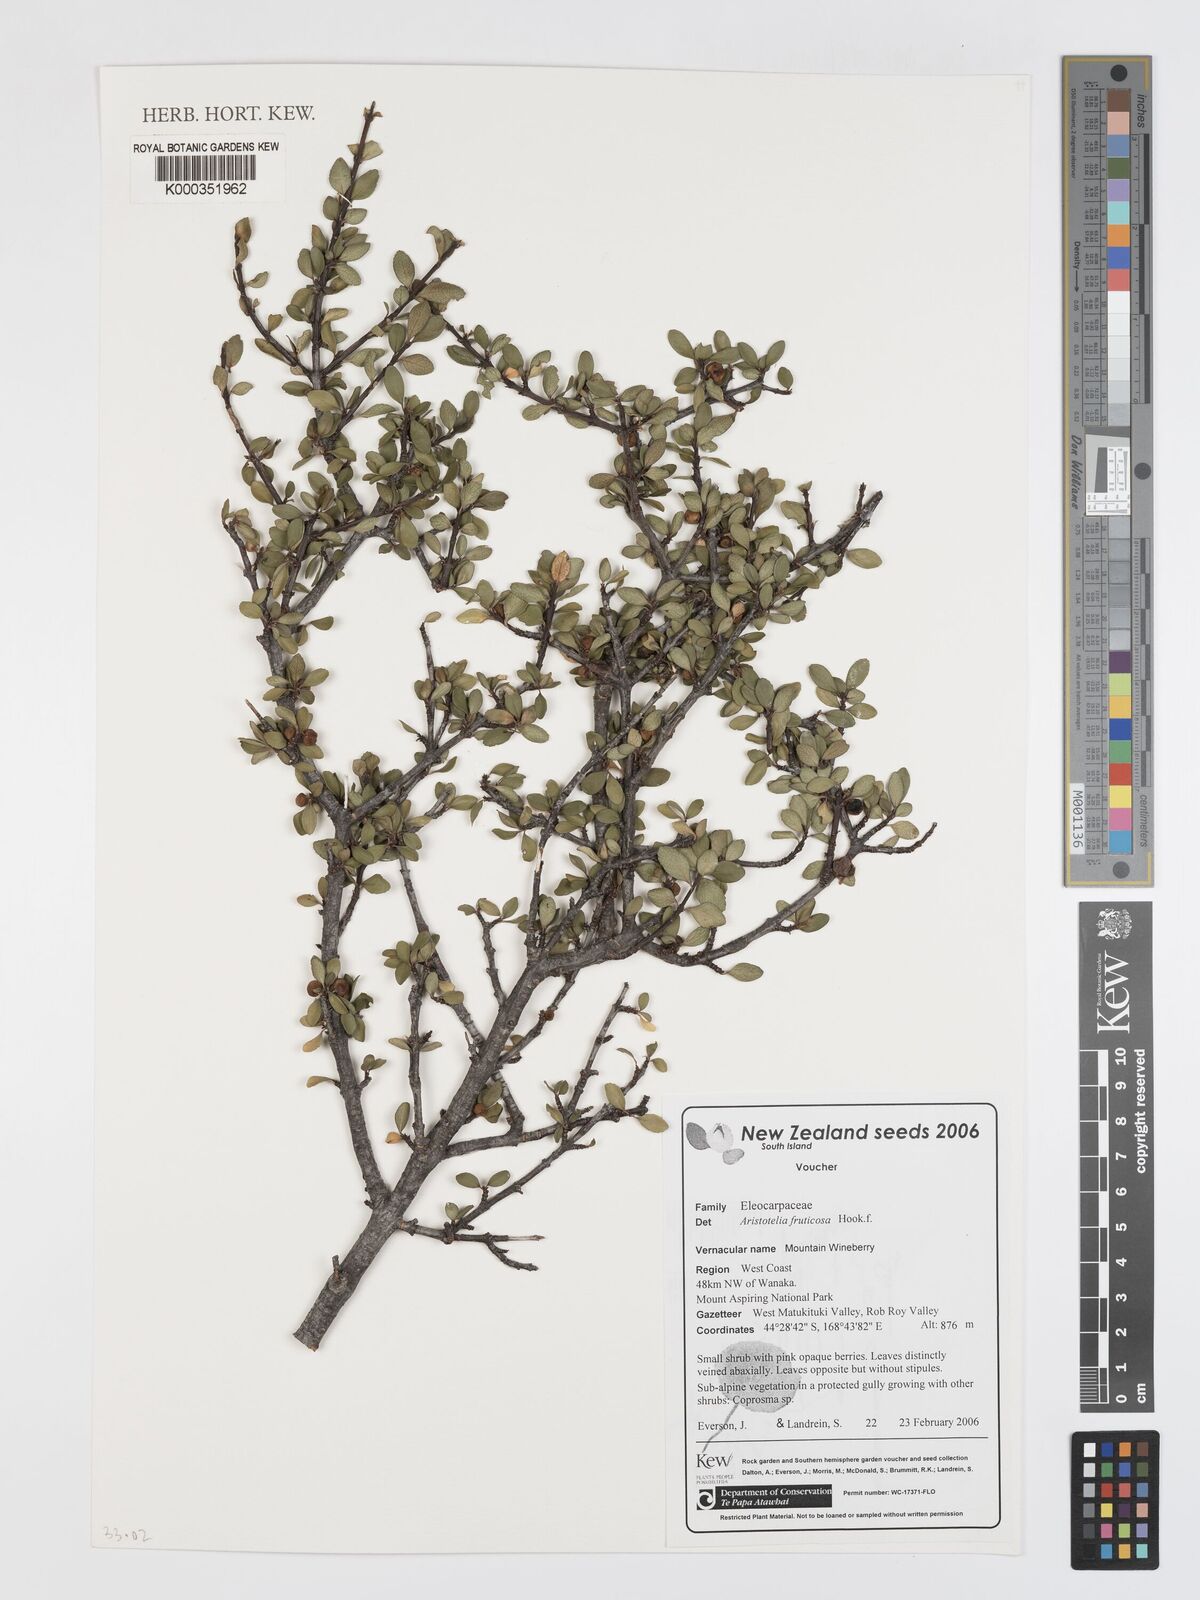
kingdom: Plantae
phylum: Tracheophyta
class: Magnoliopsida
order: Oxalidales
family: Elaeocarpaceae
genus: Aristotelia
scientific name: Aristotelia fruticosa
